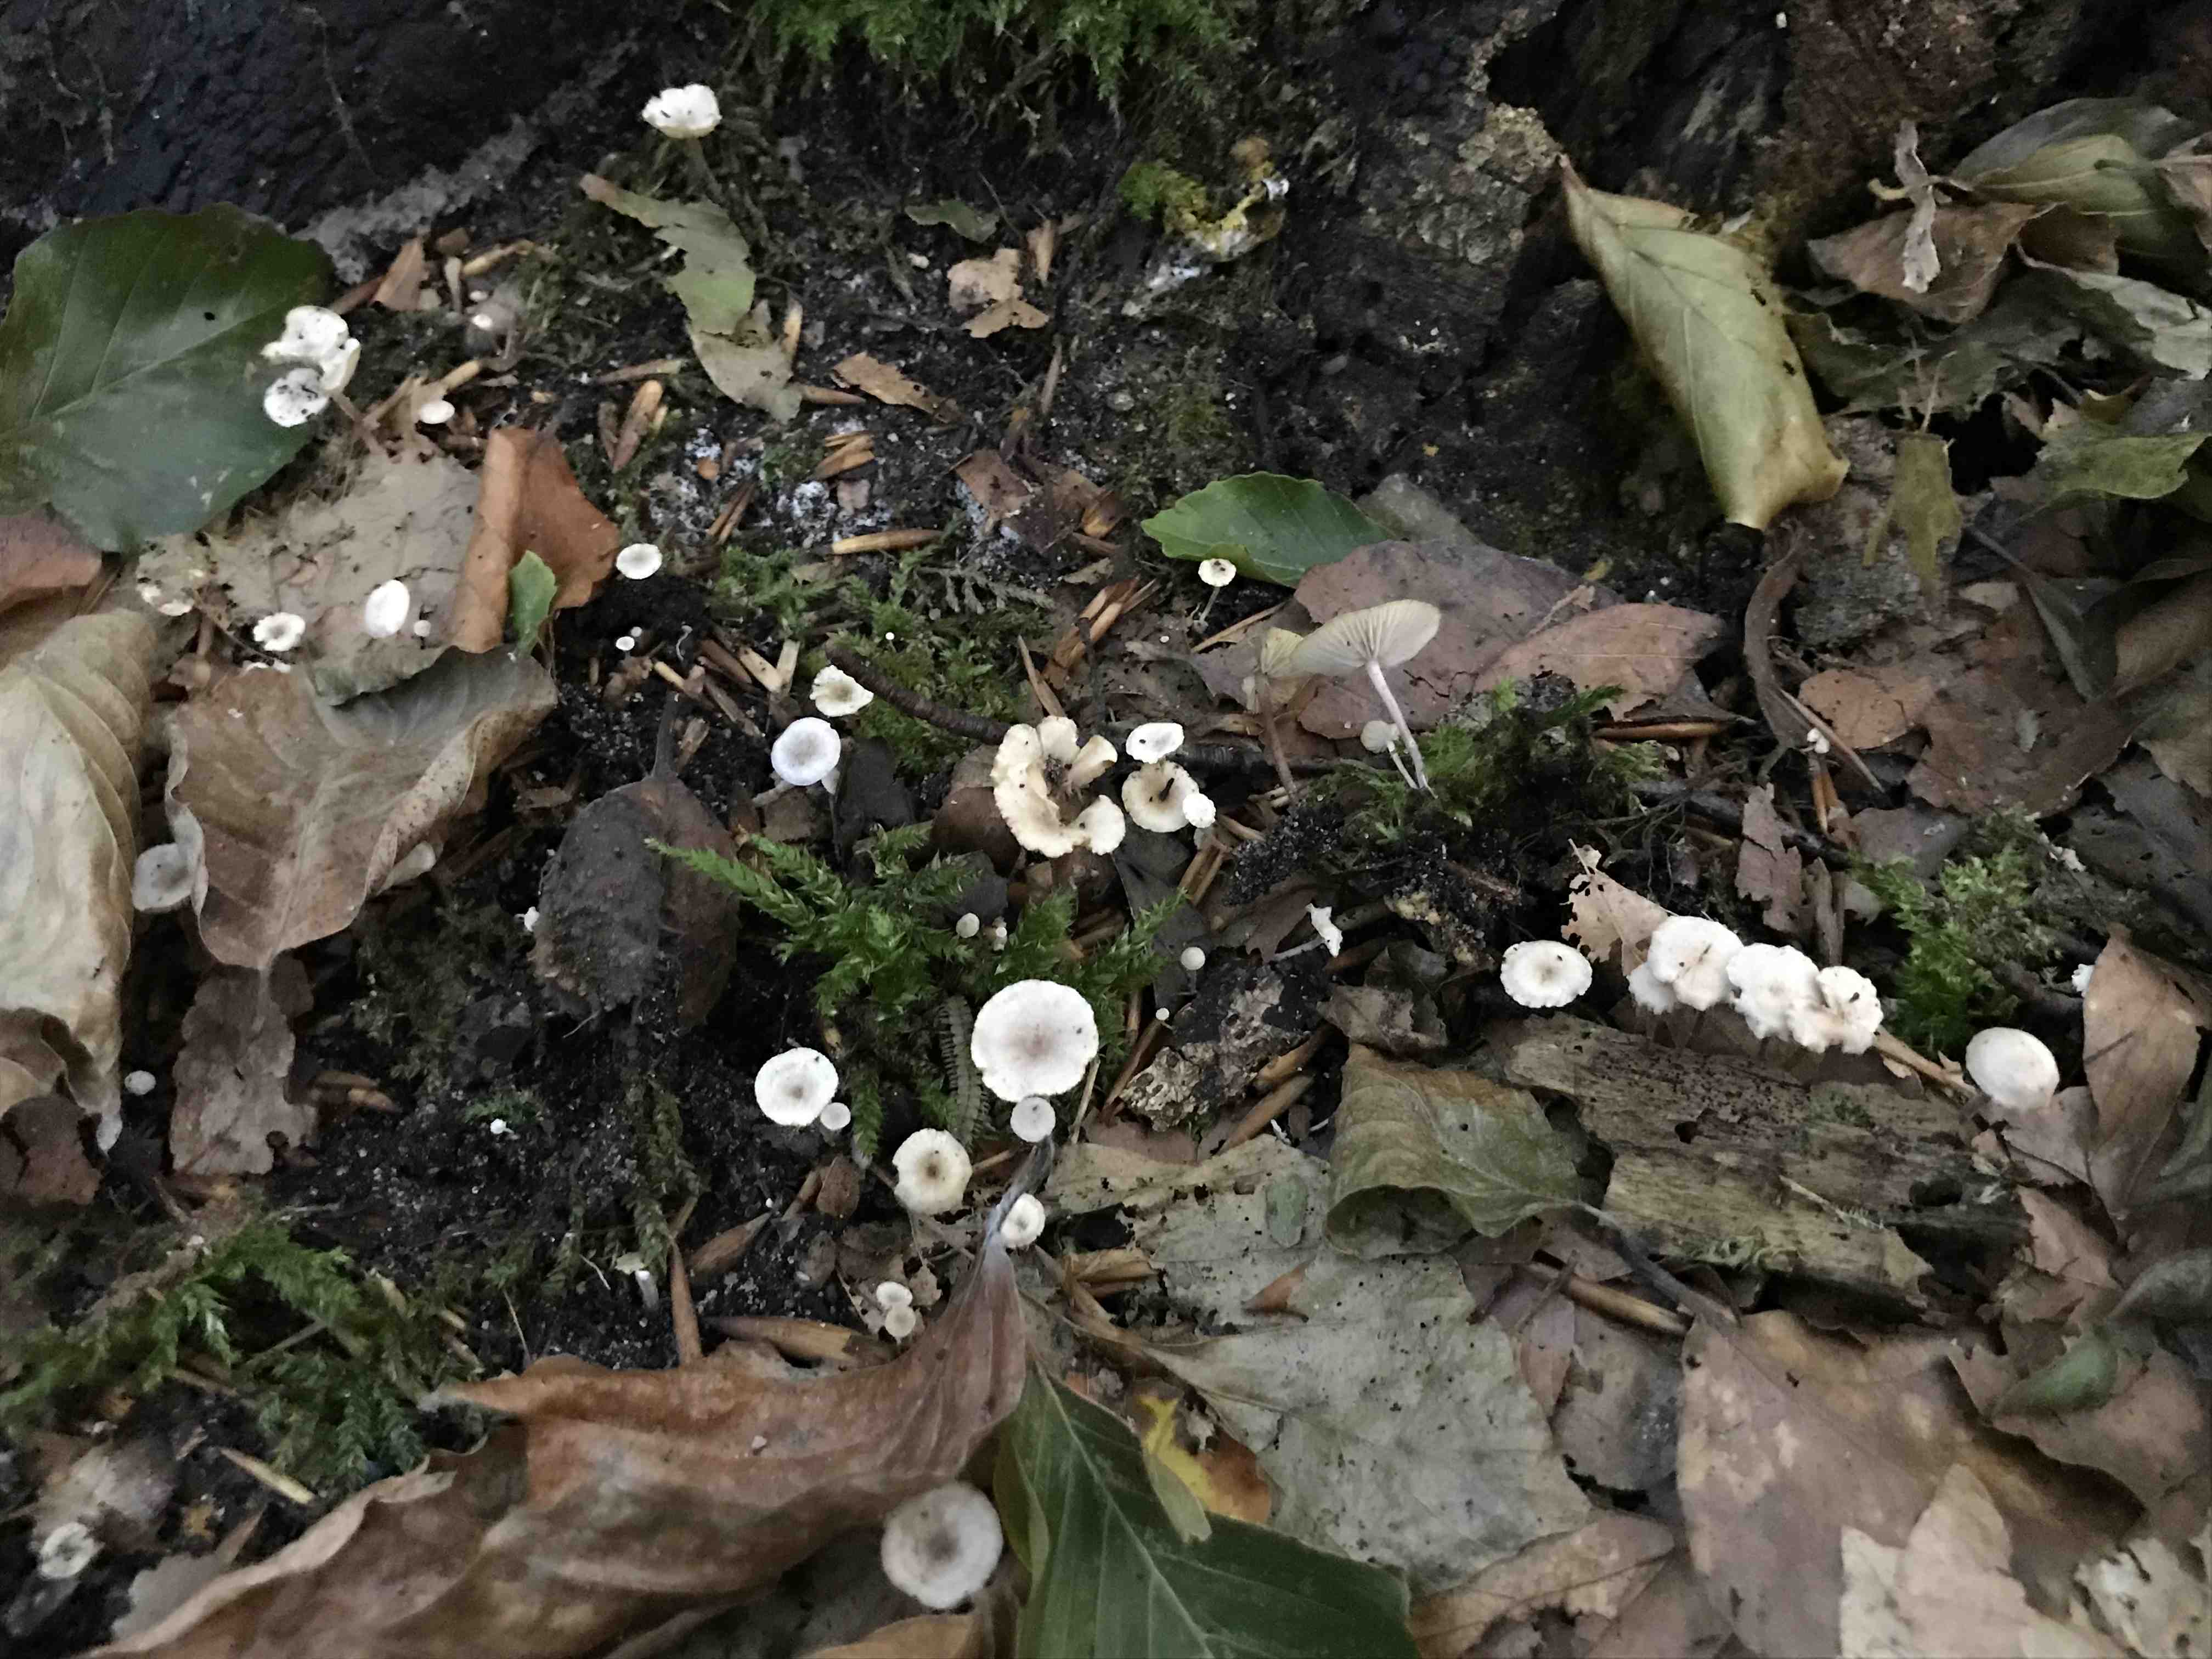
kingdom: Fungi
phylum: Basidiomycota
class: Agaricomycetes
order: Agaricales
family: Omphalotaceae
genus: Collybiopsis
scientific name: Collybiopsis ramealis
